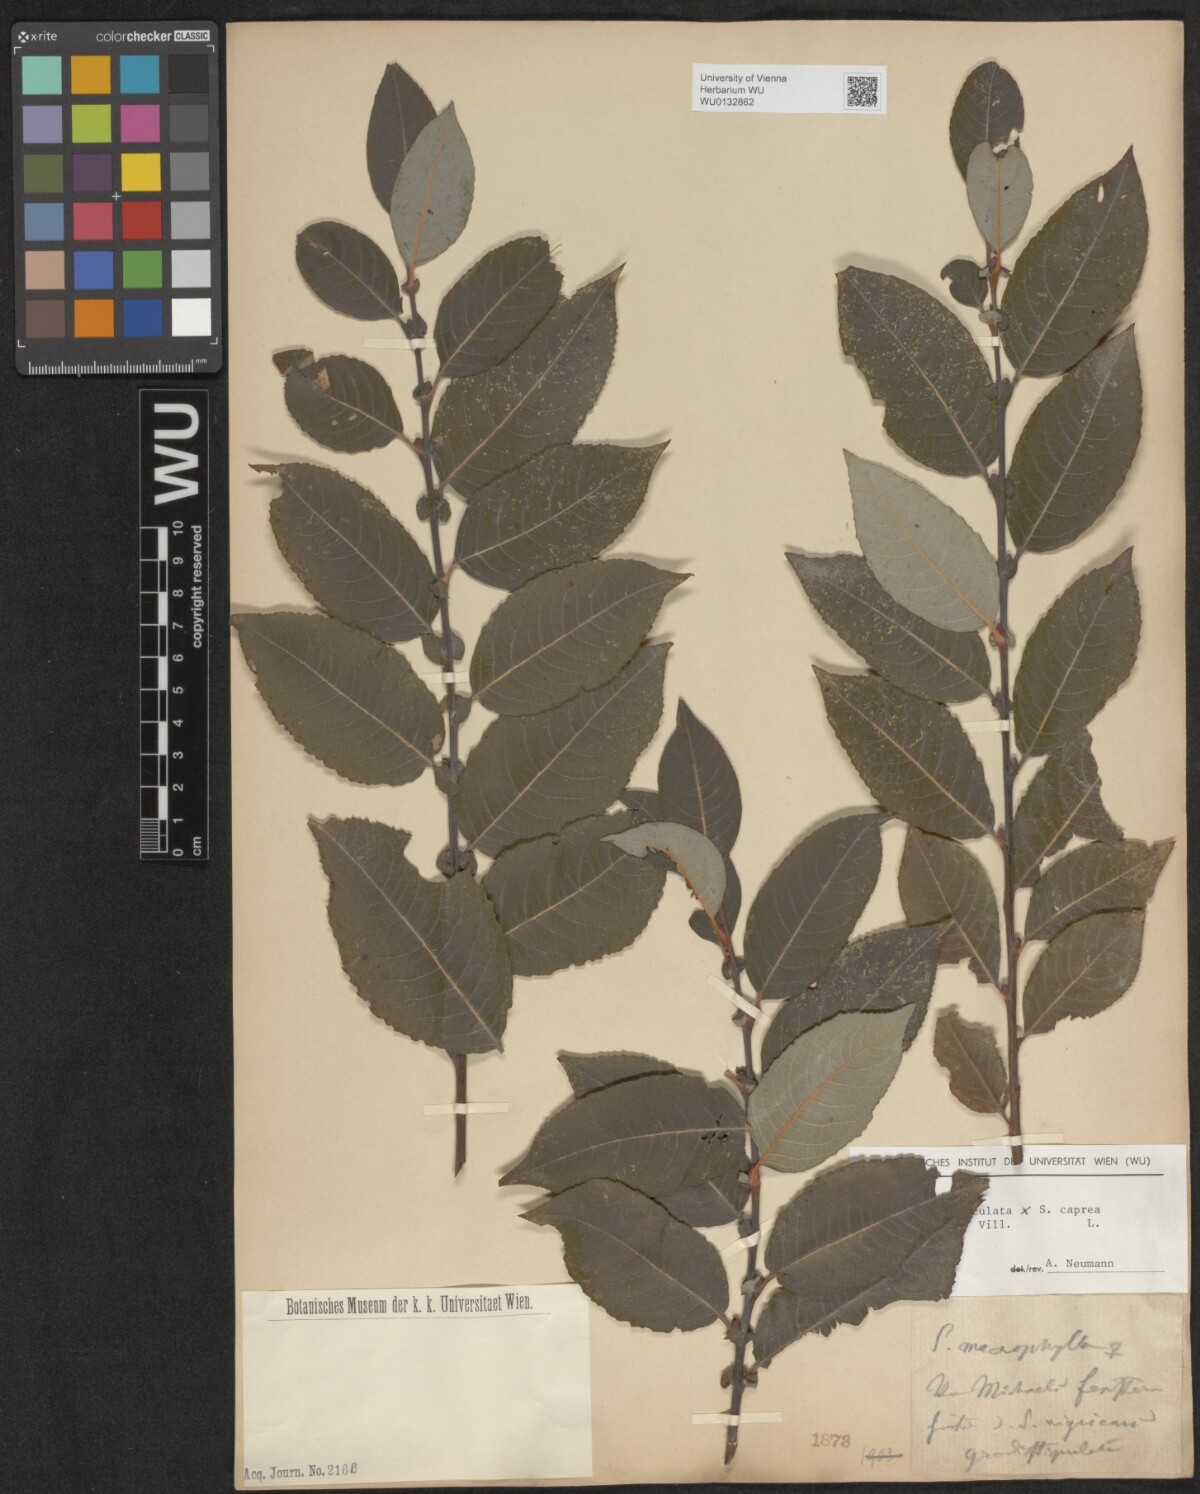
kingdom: Plantae
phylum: Tracheophyta
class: Magnoliopsida
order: Malpighiales
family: Salicaceae
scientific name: Salicaceae
